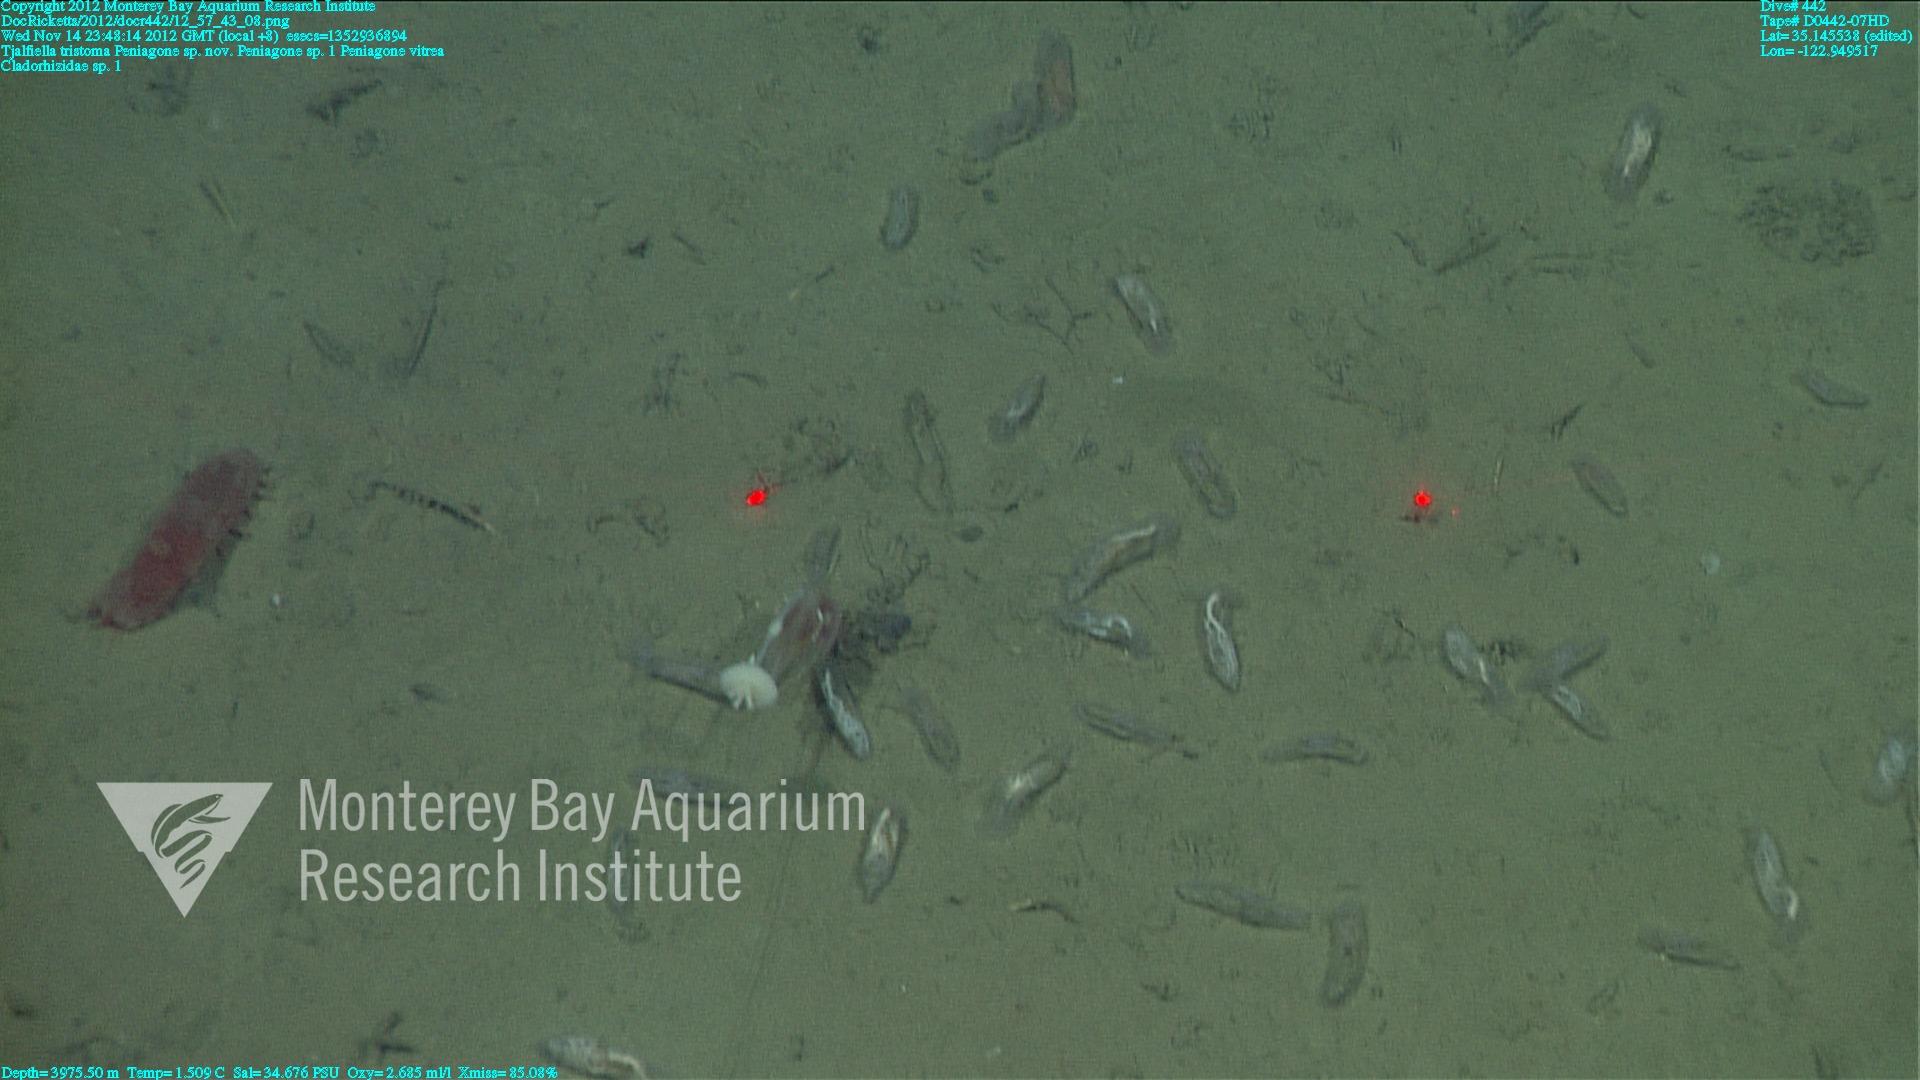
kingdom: Animalia
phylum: Porifera
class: Demospongiae
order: Poecilosclerida
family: Cladorhizidae
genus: Cladorhiza
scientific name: Cladorhiza
